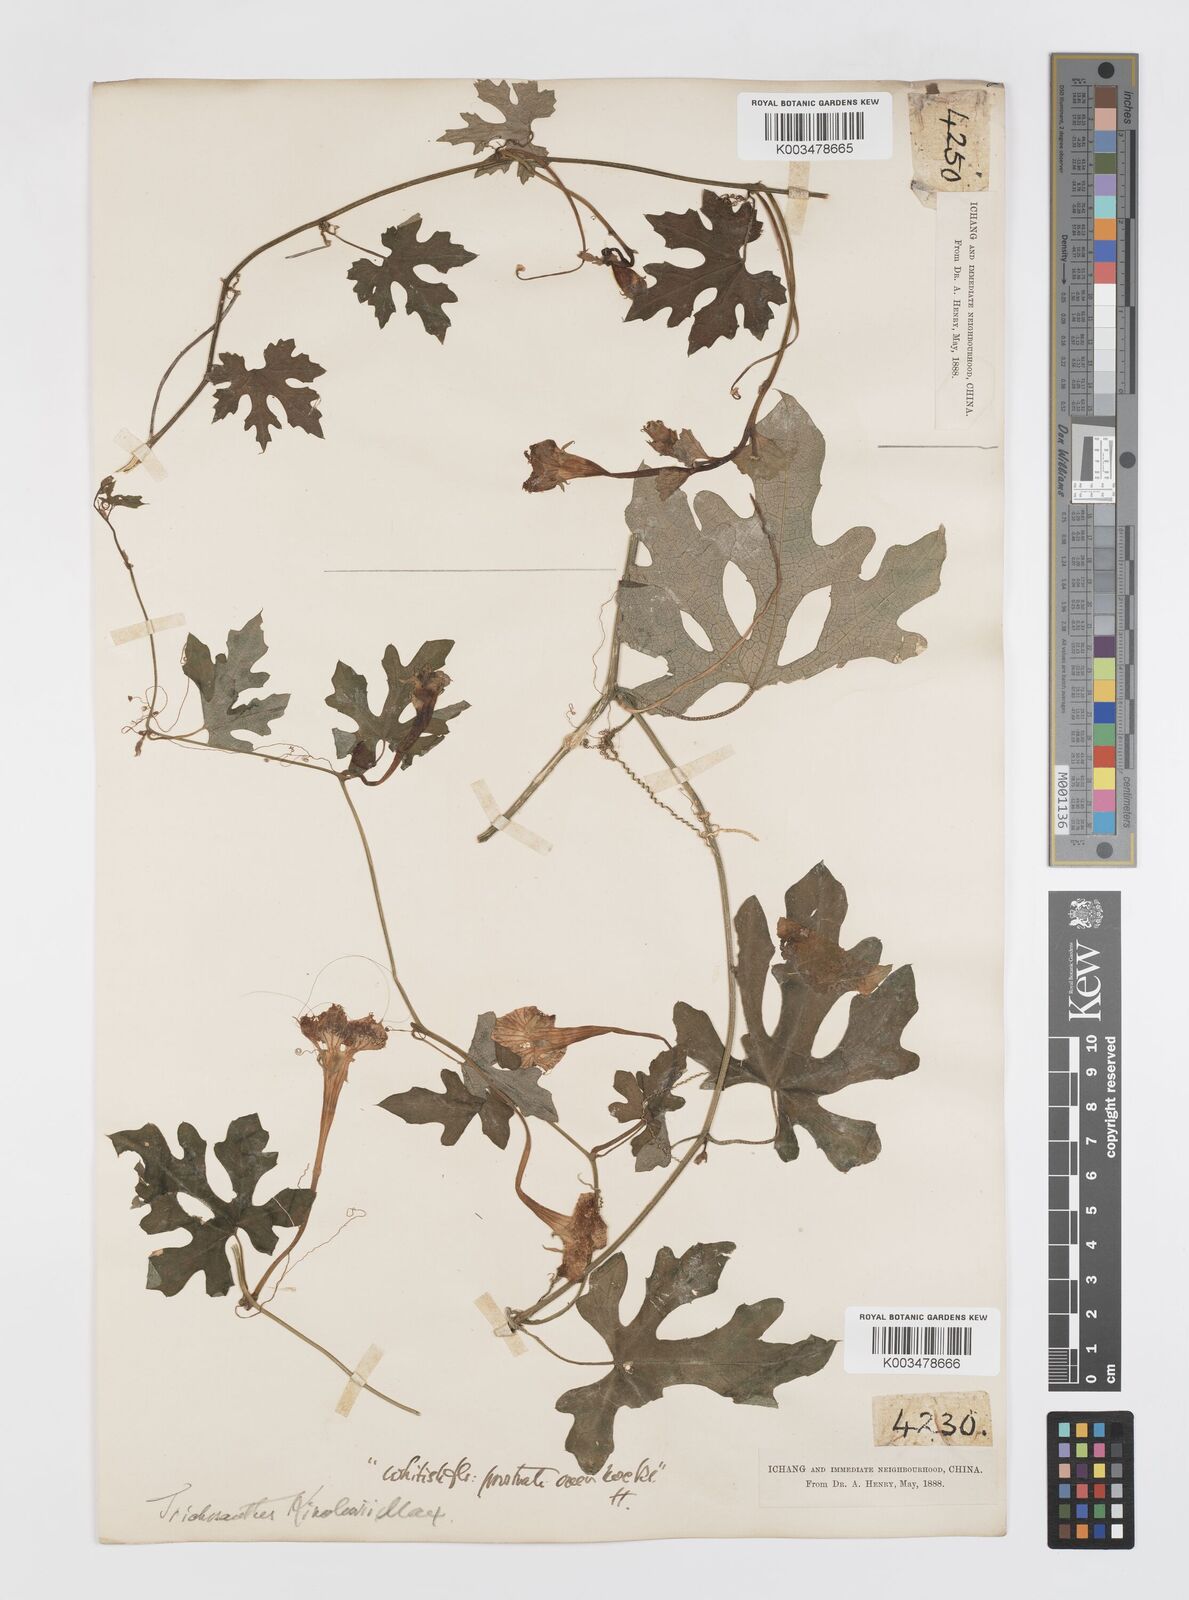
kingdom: Plantae
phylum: Tracheophyta
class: Magnoliopsida
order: Cucurbitales
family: Cucurbitaceae
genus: Trichosanthes
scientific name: Trichosanthes kirilowii
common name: Chinese-cucumber
